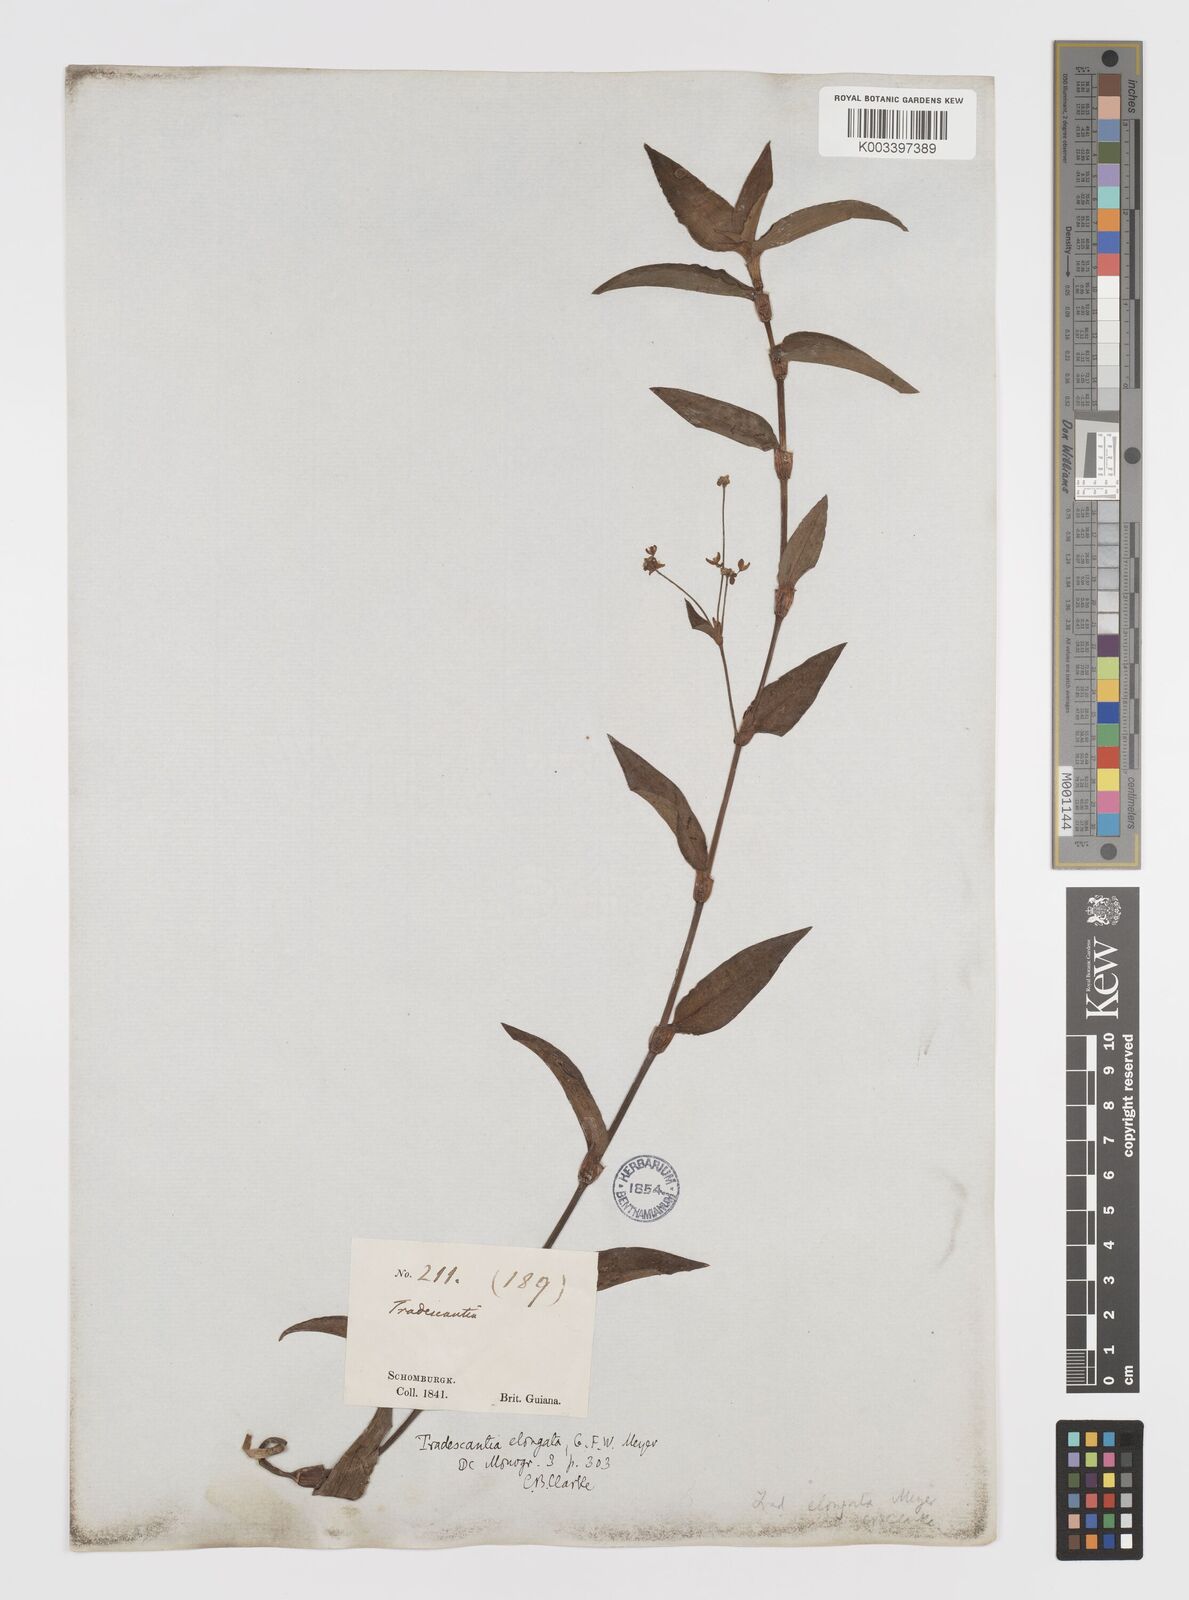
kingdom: Plantae
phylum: Tracheophyta
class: Liliopsida
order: Commelinales
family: Commelinaceae
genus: Callisia
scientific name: Callisia serrulata
